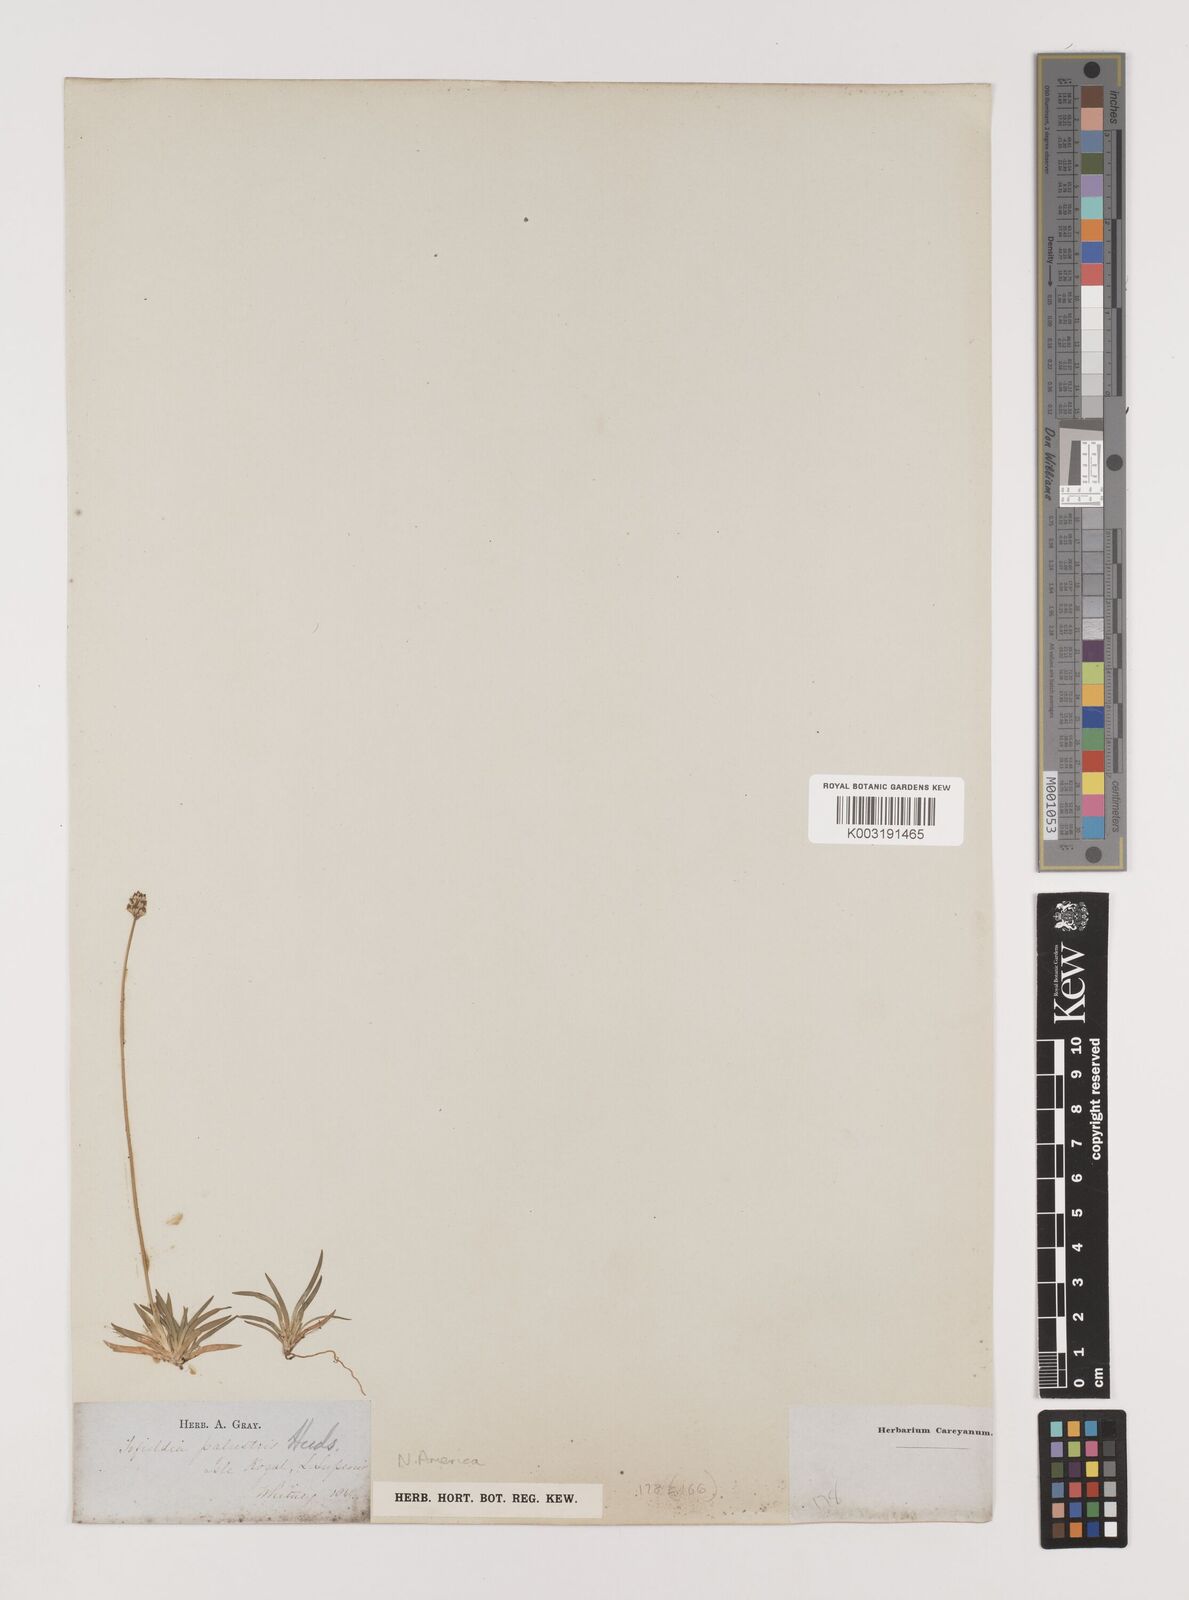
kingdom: Plantae
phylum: Tracheophyta
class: Liliopsida
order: Alismatales
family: Tofieldiaceae
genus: Tofieldia
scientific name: Tofieldia calyculata
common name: German-asphodel
